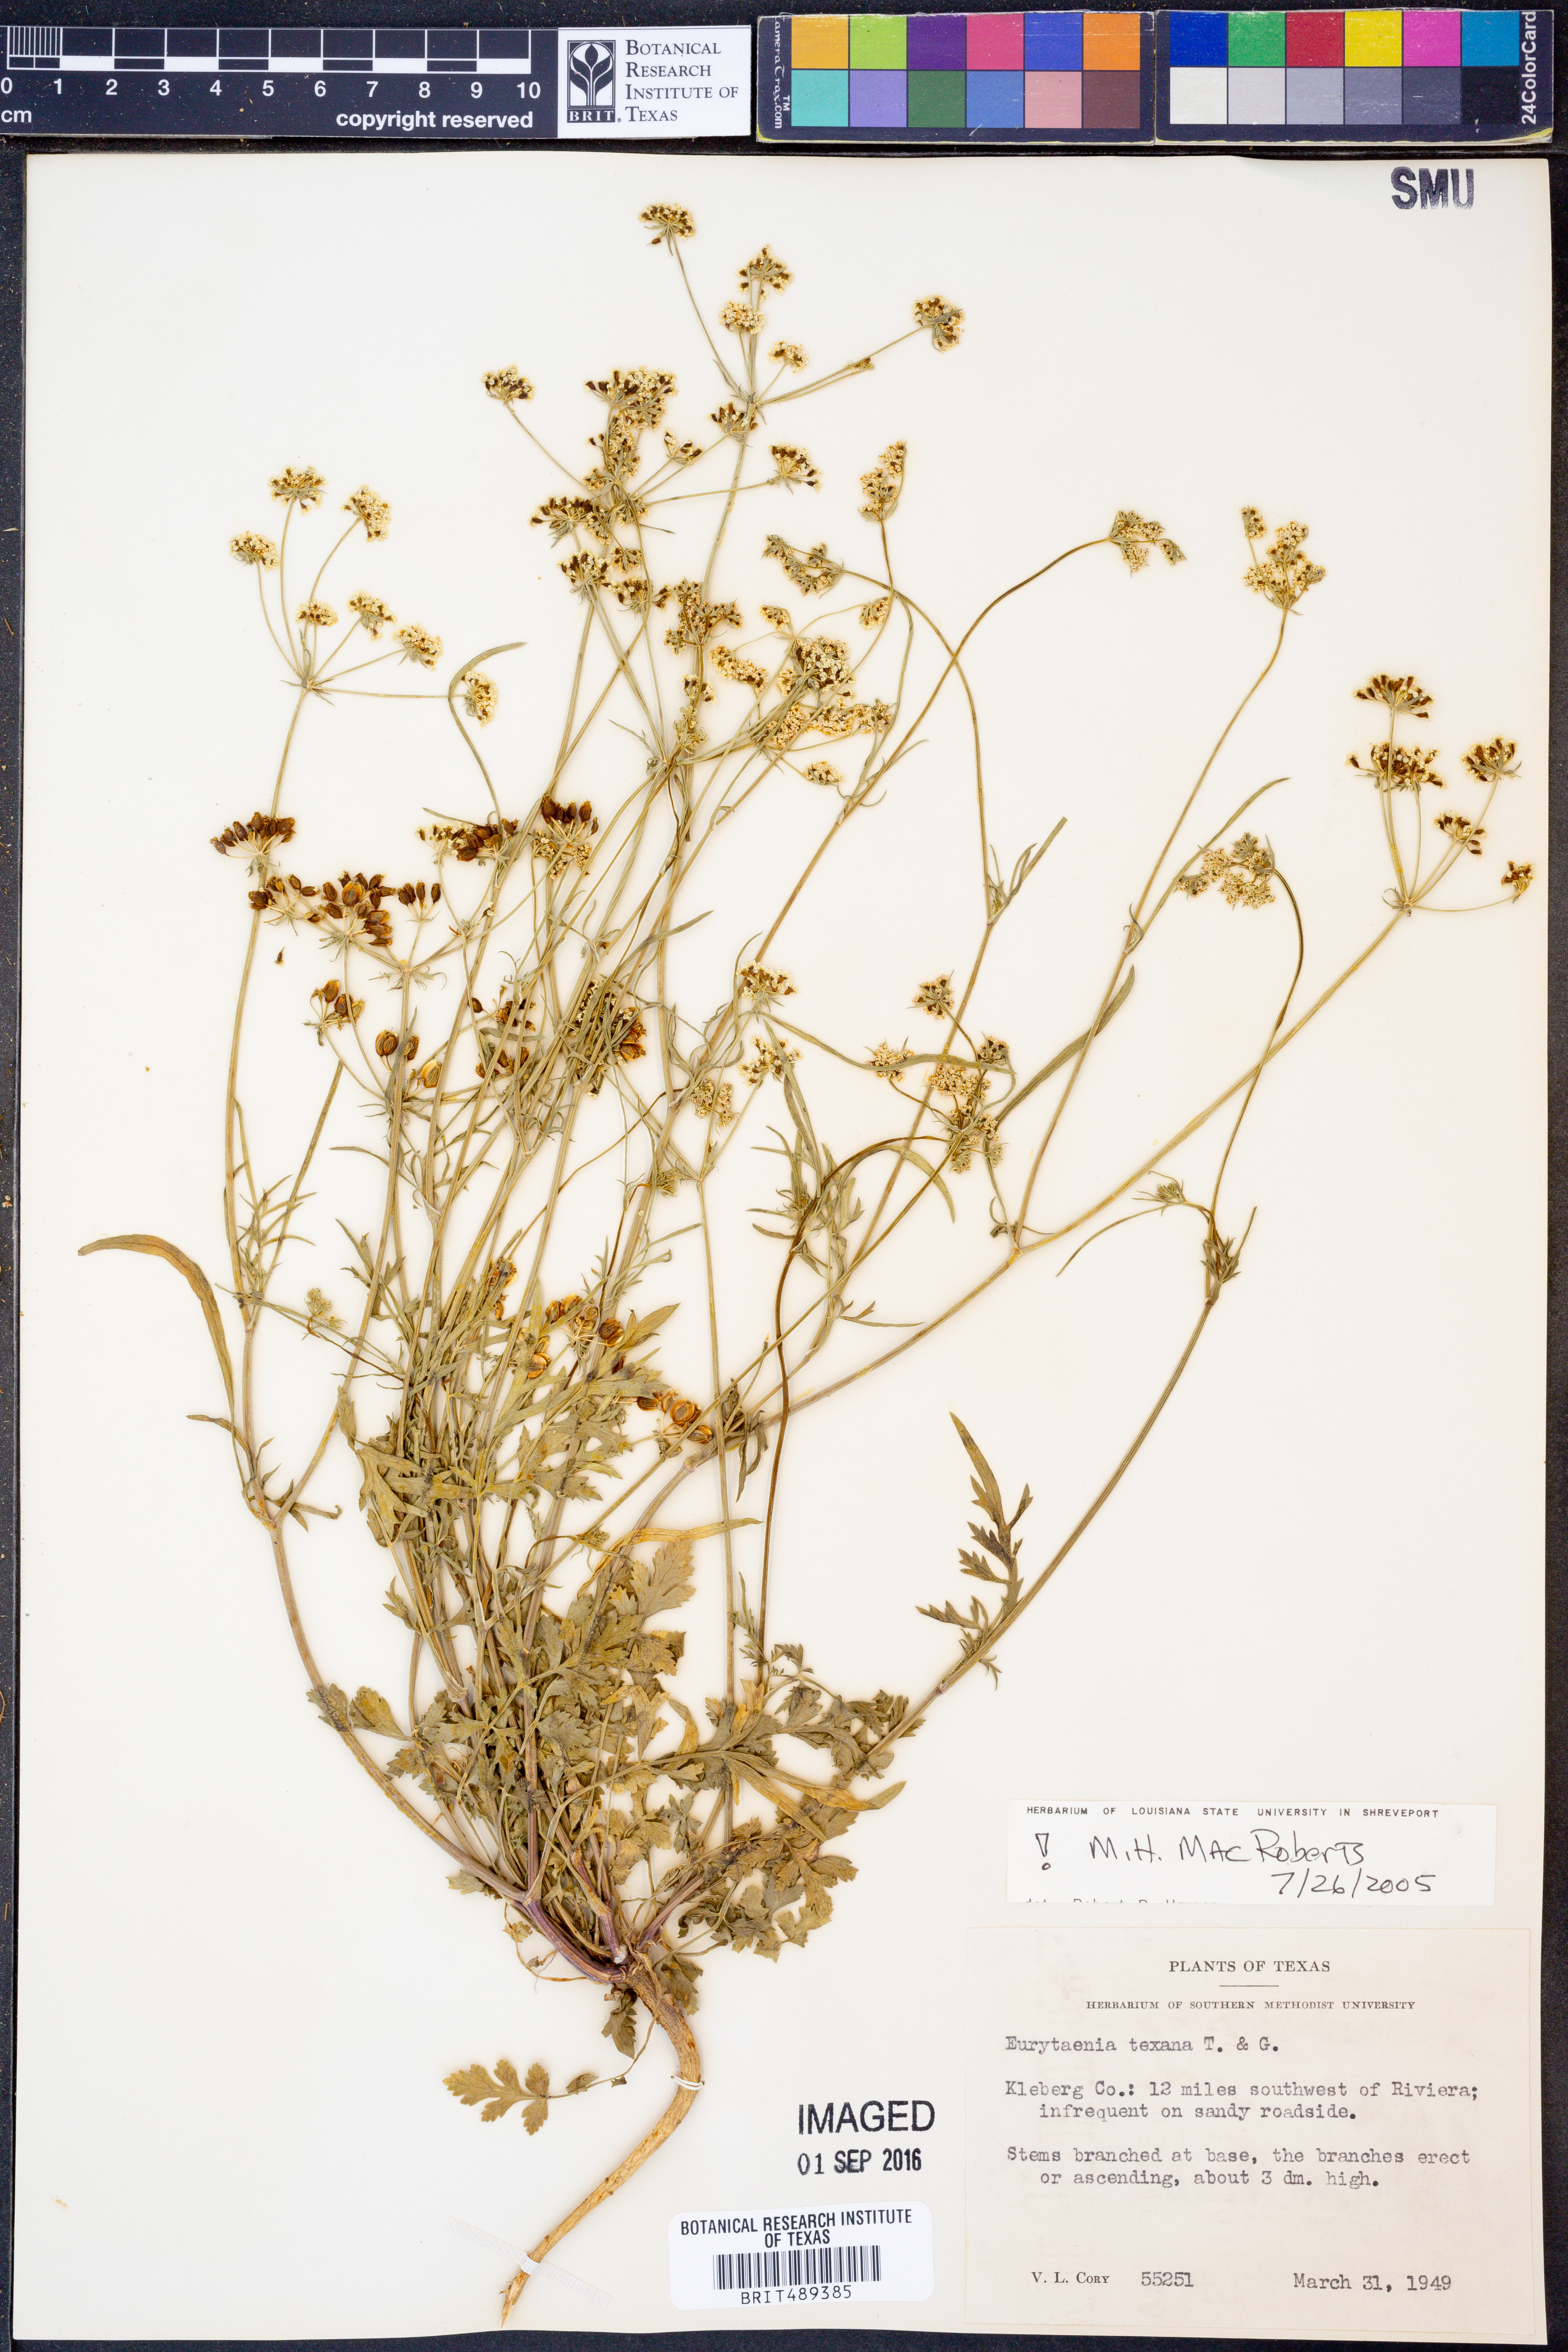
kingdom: Plantae
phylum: Tracheophyta
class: Magnoliopsida
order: Apiales
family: Apiaceae
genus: Eurytaenia
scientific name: Eurytaenia texana
